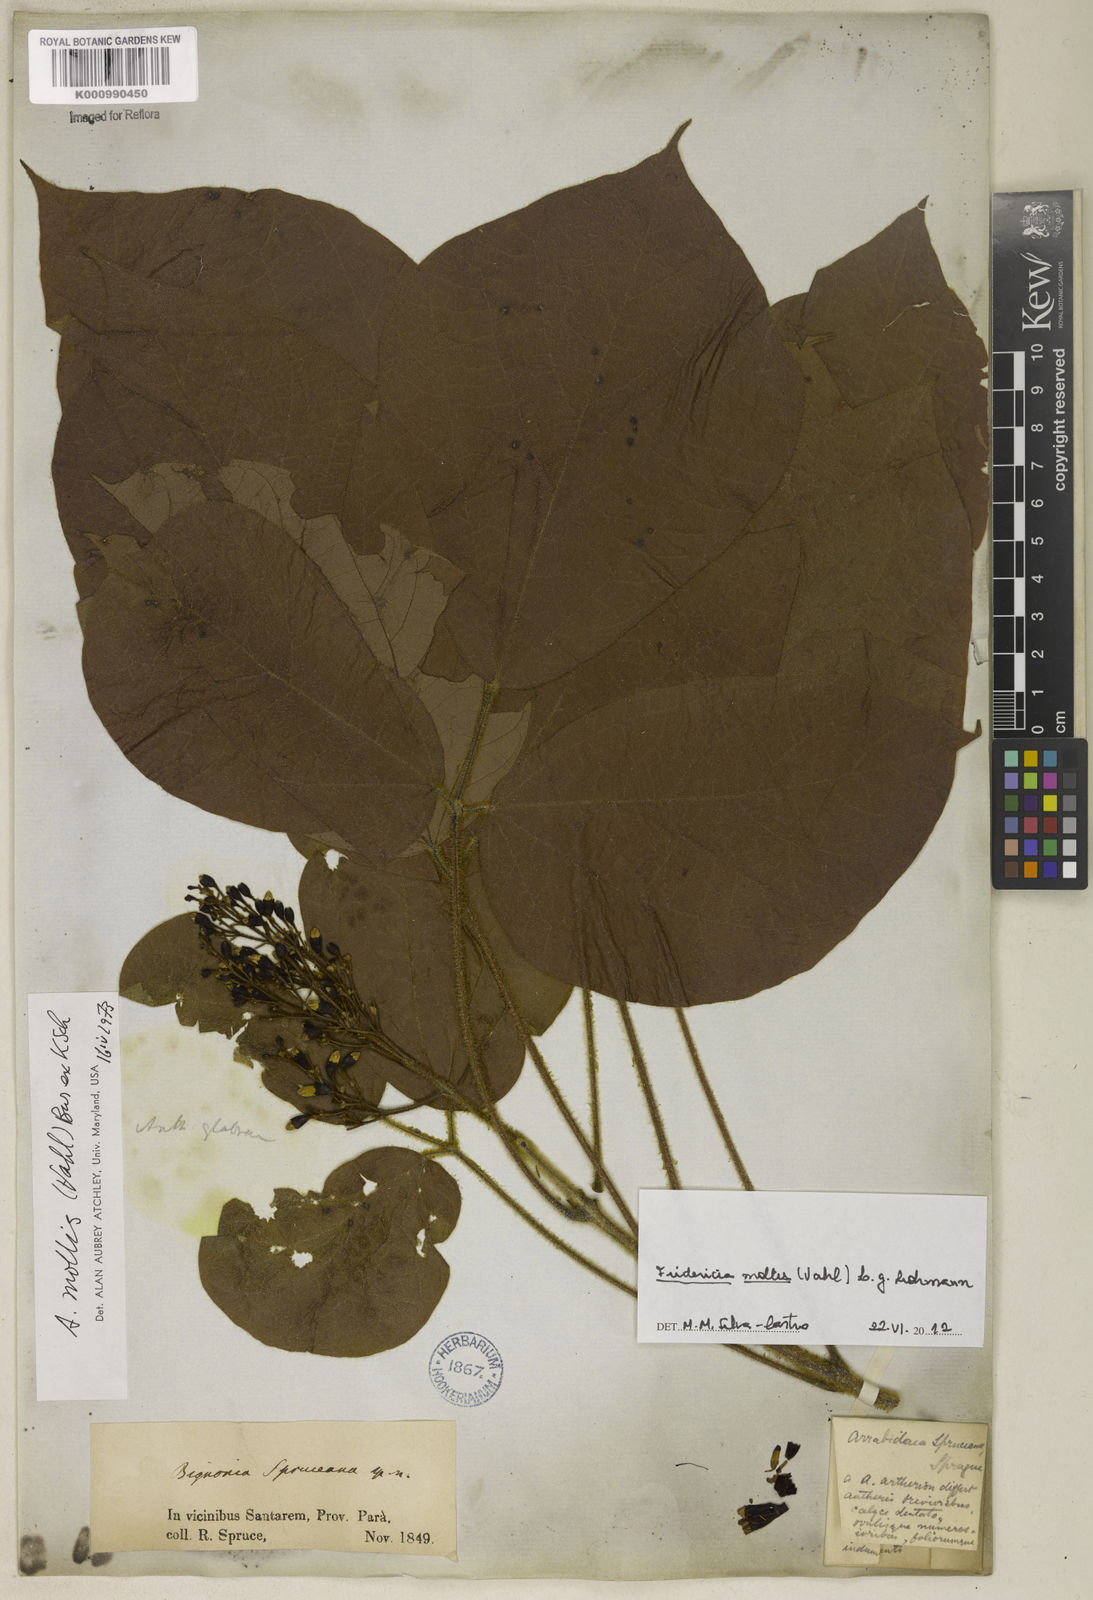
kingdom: Plantae
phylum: Tracheophyta
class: Magnoliopsida
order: Lamiales
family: Bignoniaceae
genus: Fridericia
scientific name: Fridericia mollis
